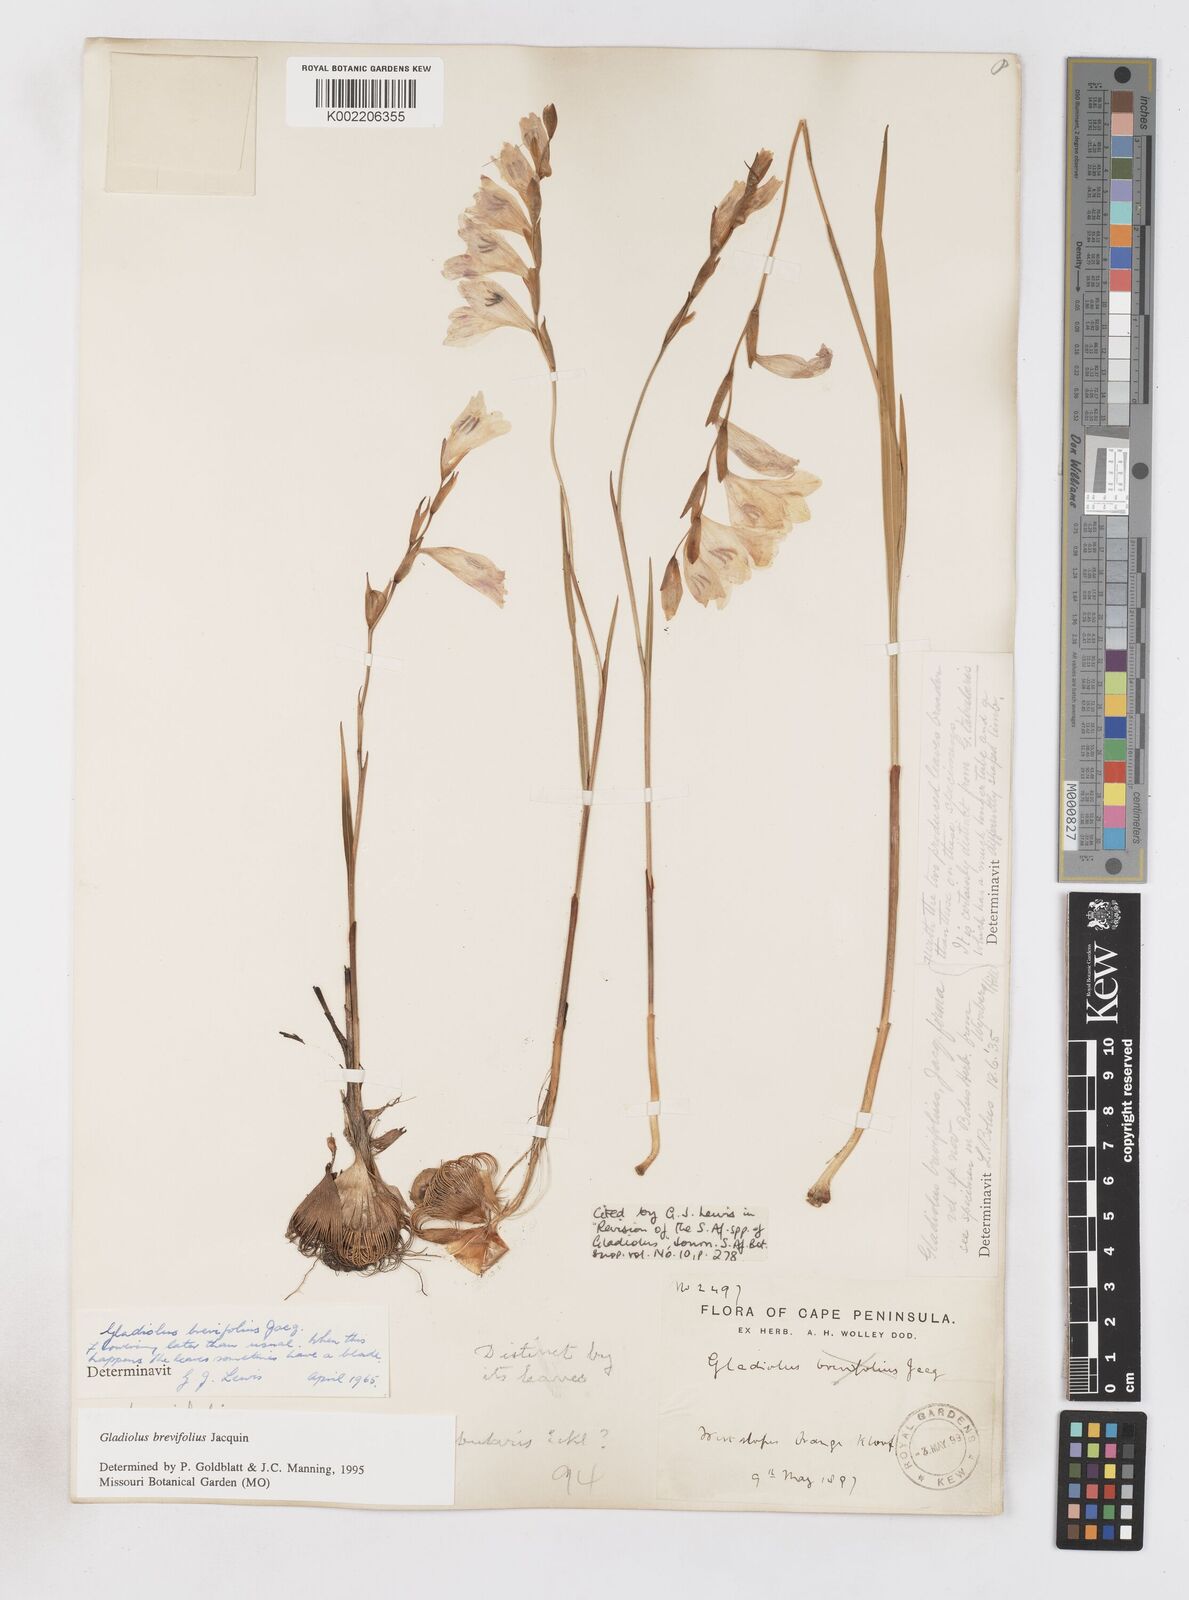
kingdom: Plantae
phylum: Tracheophyta
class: Liliopsida
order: Asparagales
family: Iridaceae
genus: Gladiolus
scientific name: Gladiolus brevifolius
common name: March pypie
